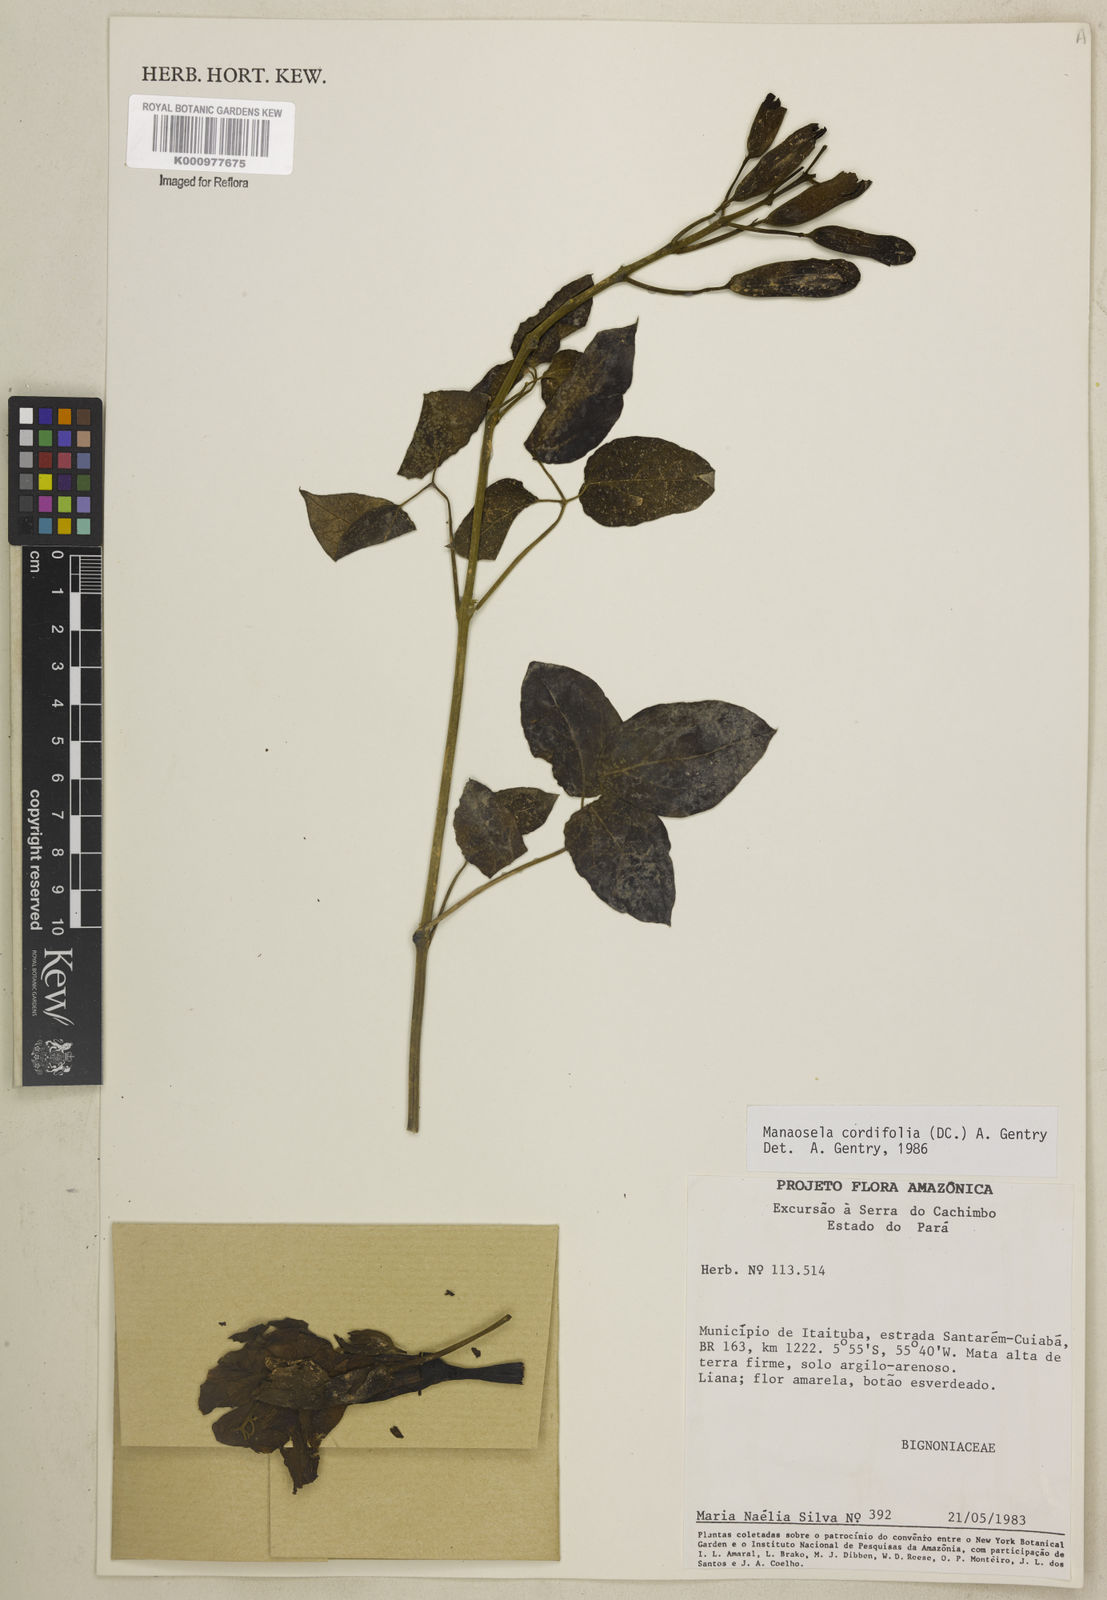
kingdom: Plantae
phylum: Tracheophyta
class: Magnoliopsida
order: Lamiales
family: Bignoniaceae
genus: Manaosella
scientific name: Manaosella cordifolia
